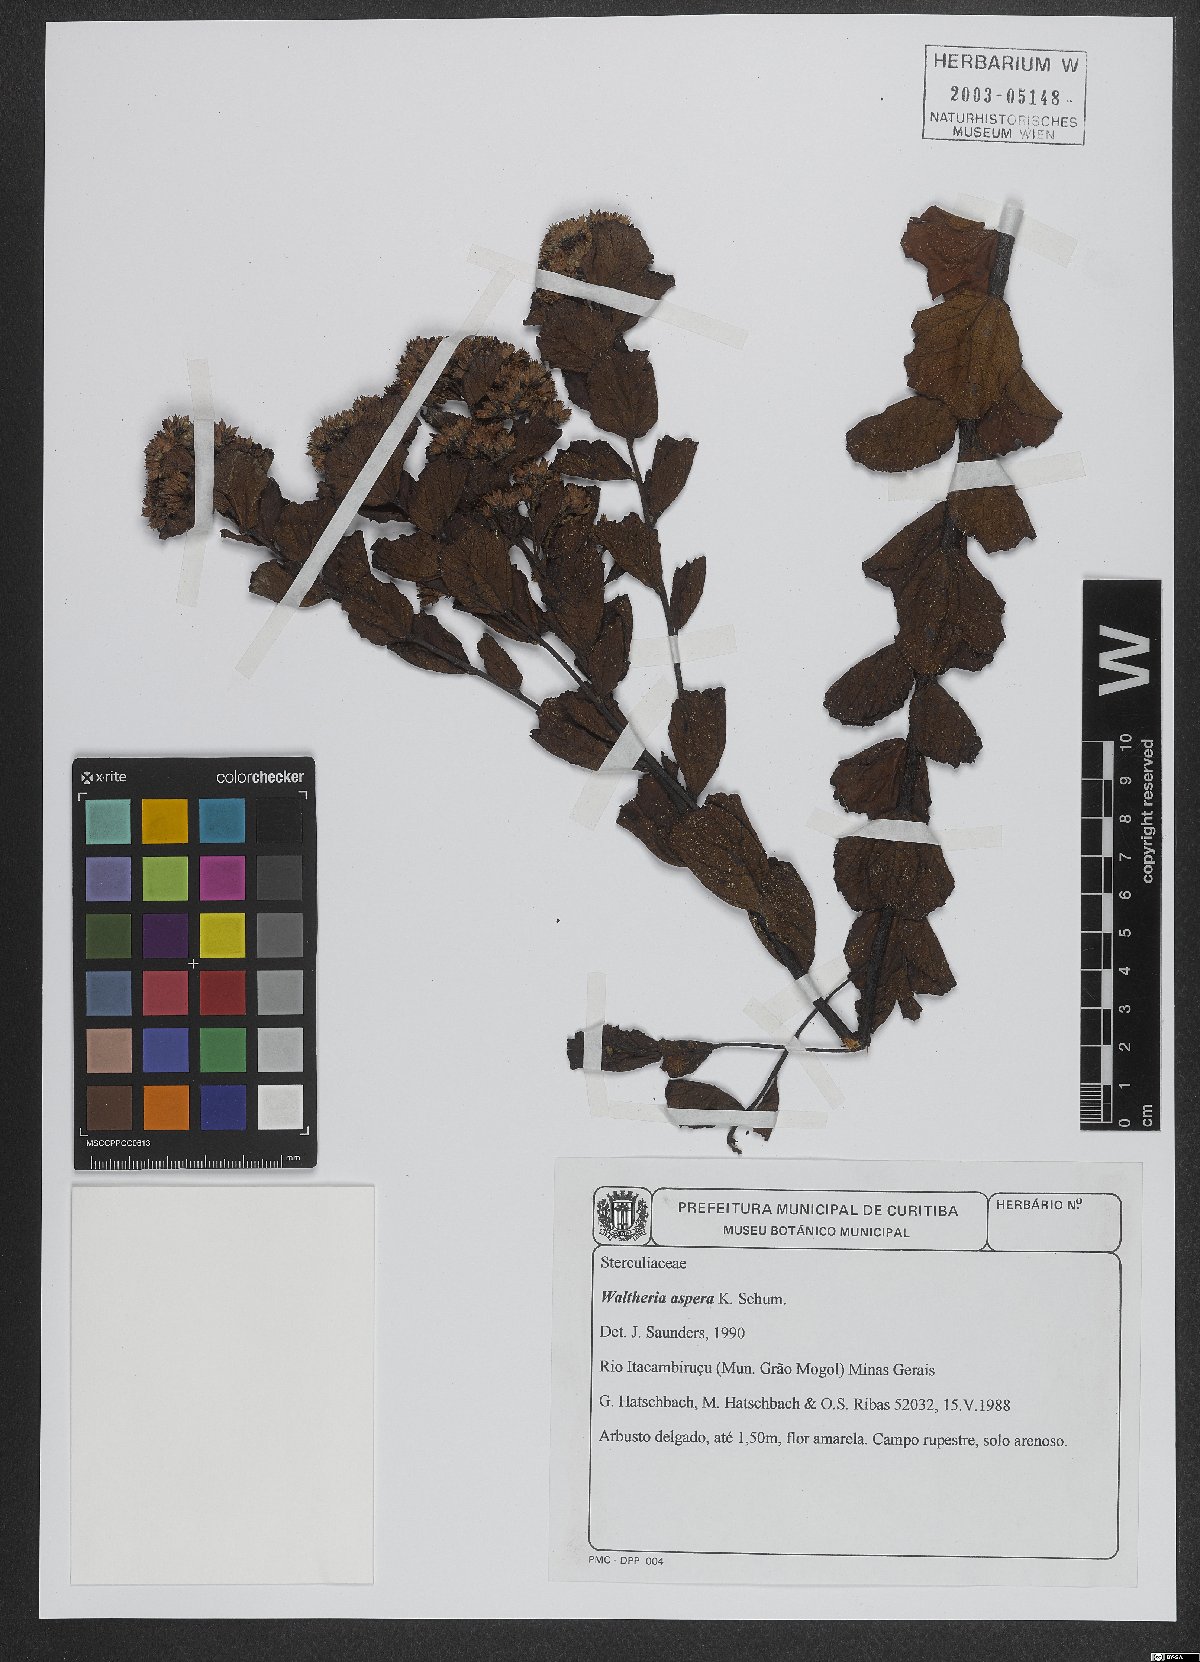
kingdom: Plantae
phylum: Tracheophyta
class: Magnoliopsida
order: Malvales
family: Malvaceae
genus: Waltheria
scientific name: Waltheria scabra
